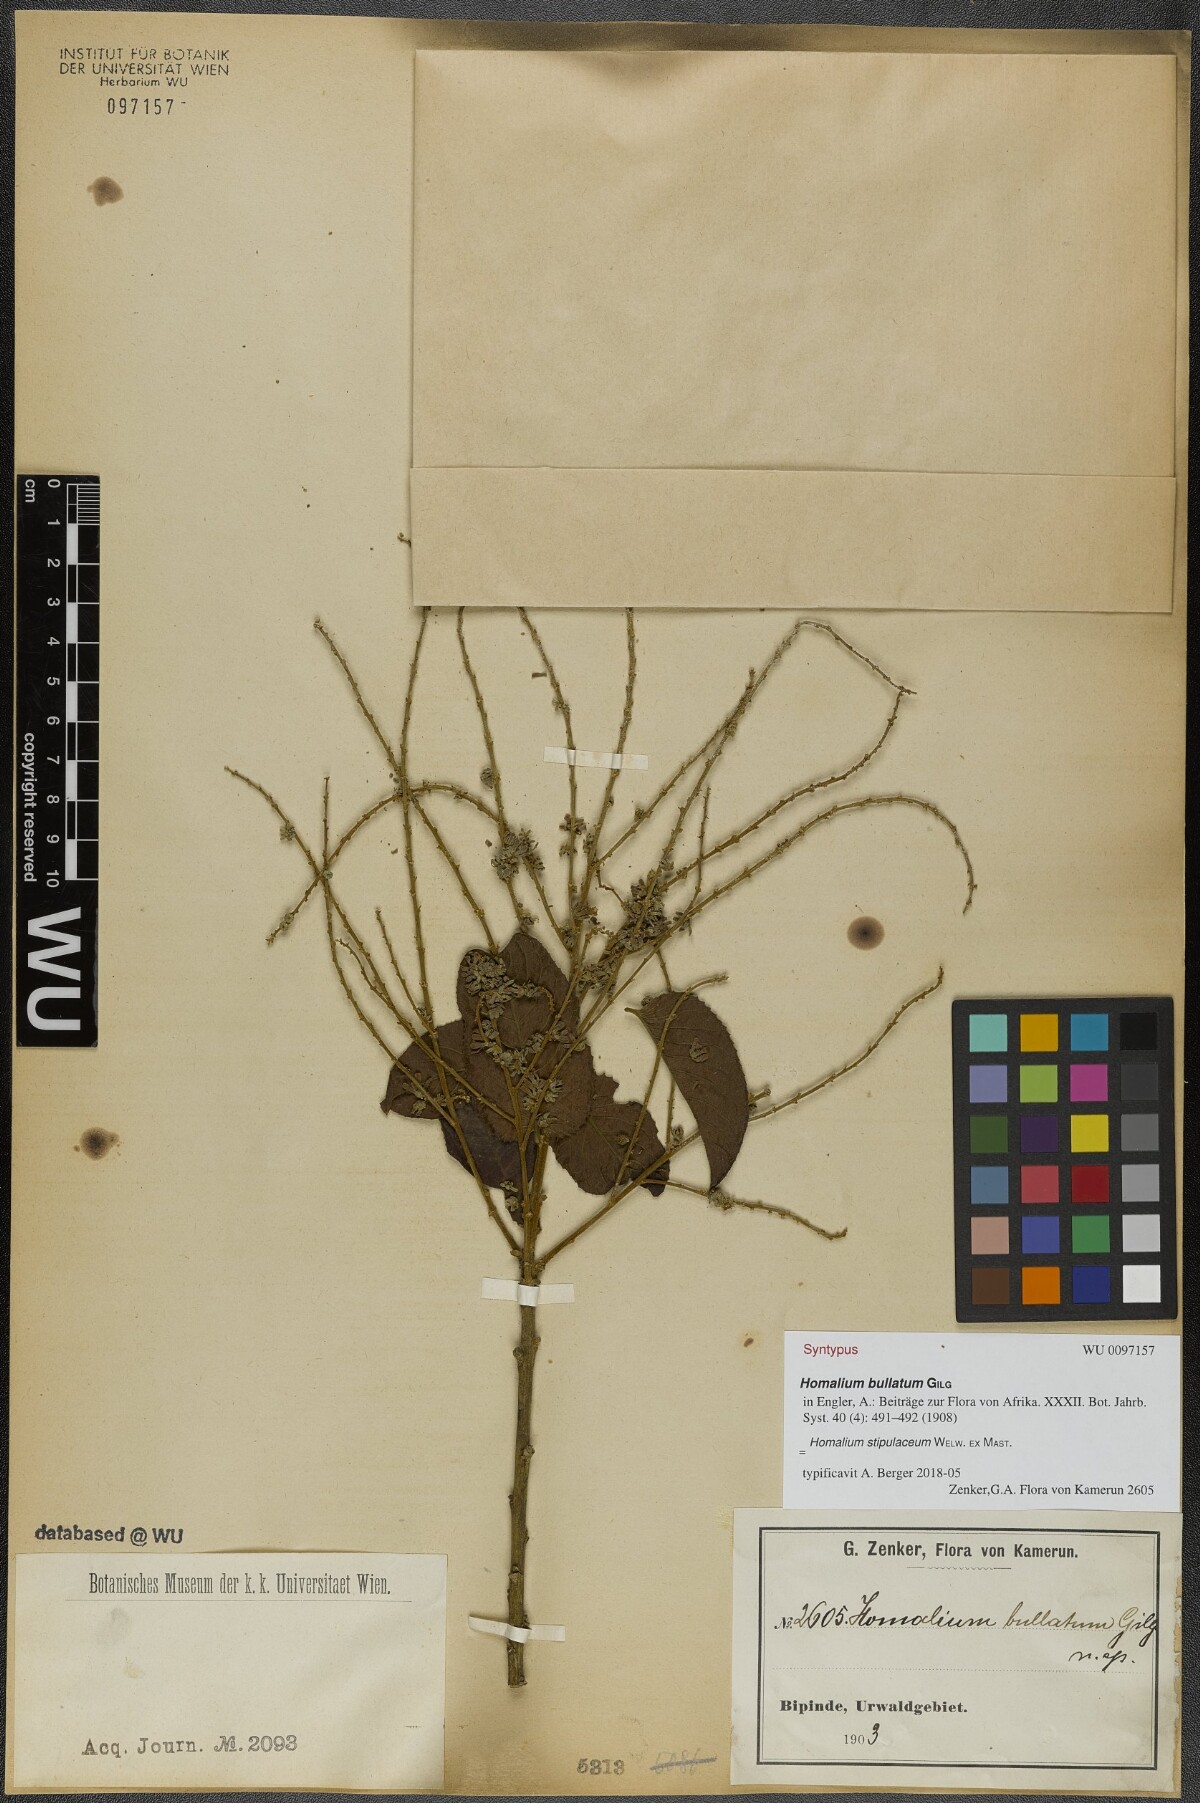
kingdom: Plantae
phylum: Tracheophyta
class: Magnoliopsida
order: Malpighiales
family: Salicaceae
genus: Homalium
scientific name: Homalium stipulaceum
